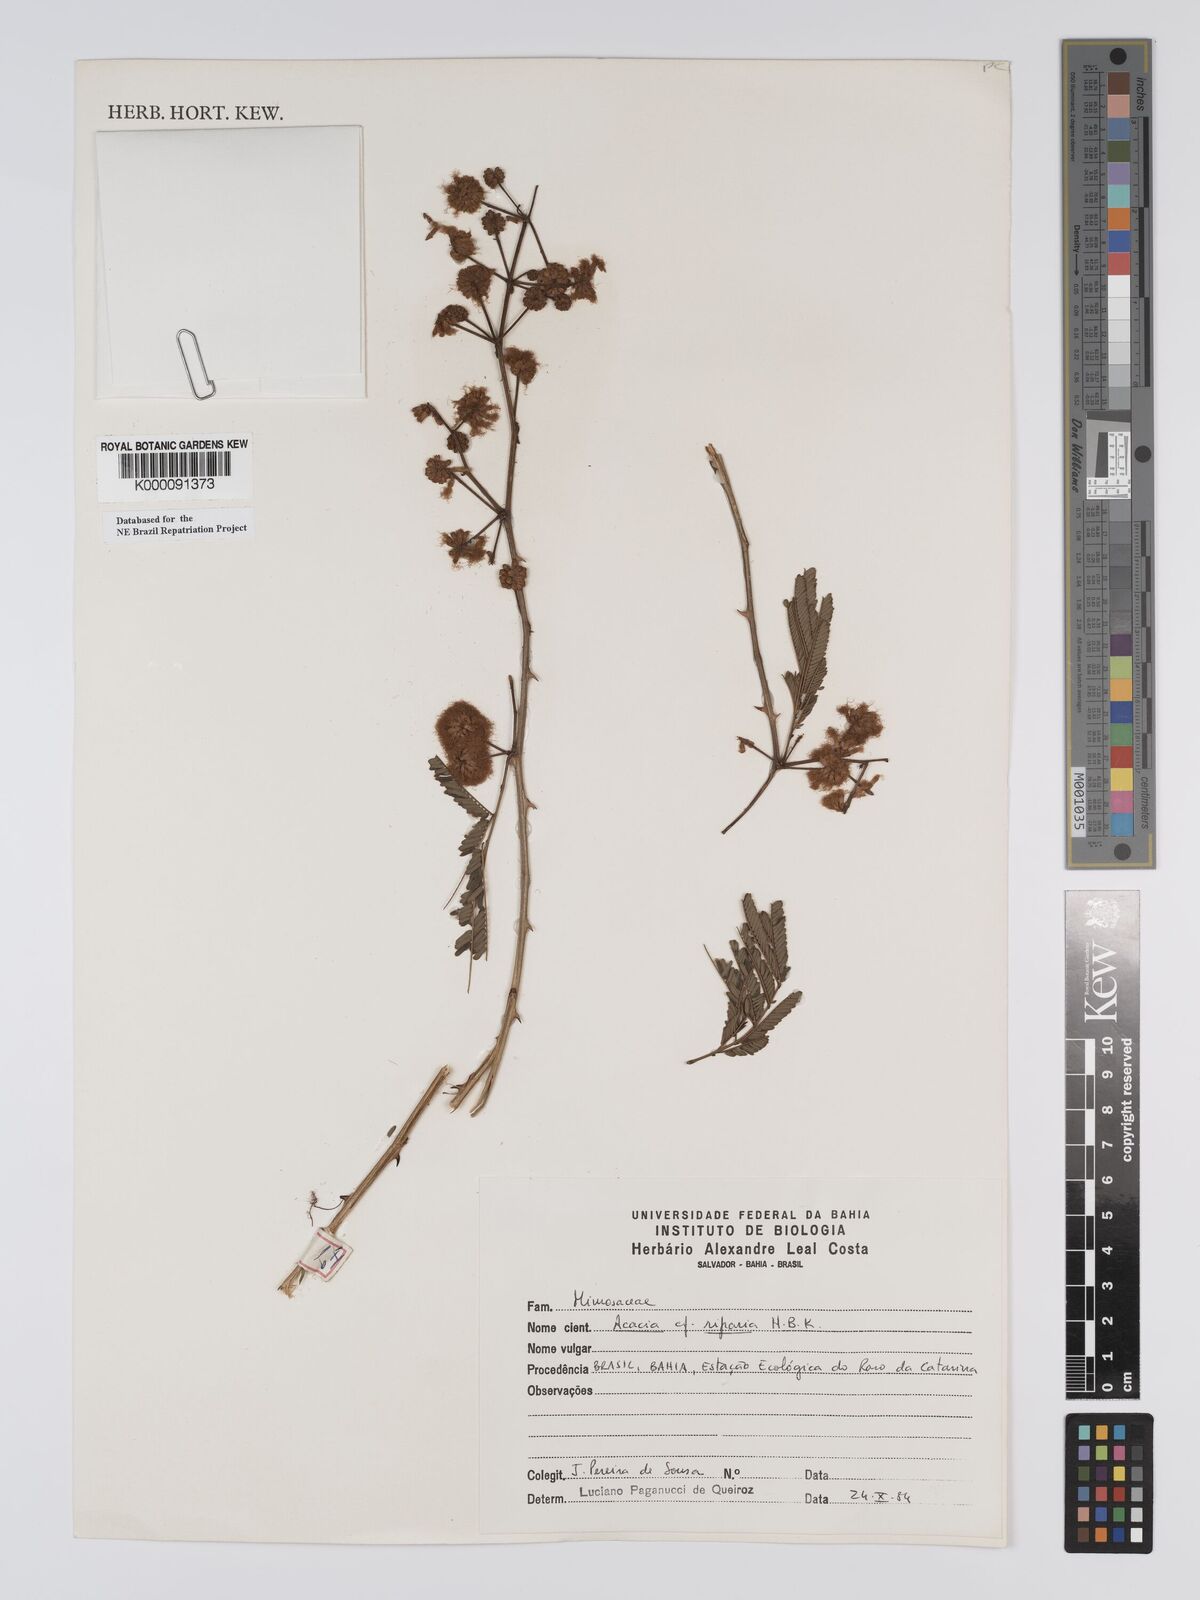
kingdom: Plantae
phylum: Tracheophyta
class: Magnoliopsida
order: Fabales
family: Fabaceae
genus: Senegalia
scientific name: Senegalia riparia
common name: Catch-and-keep
